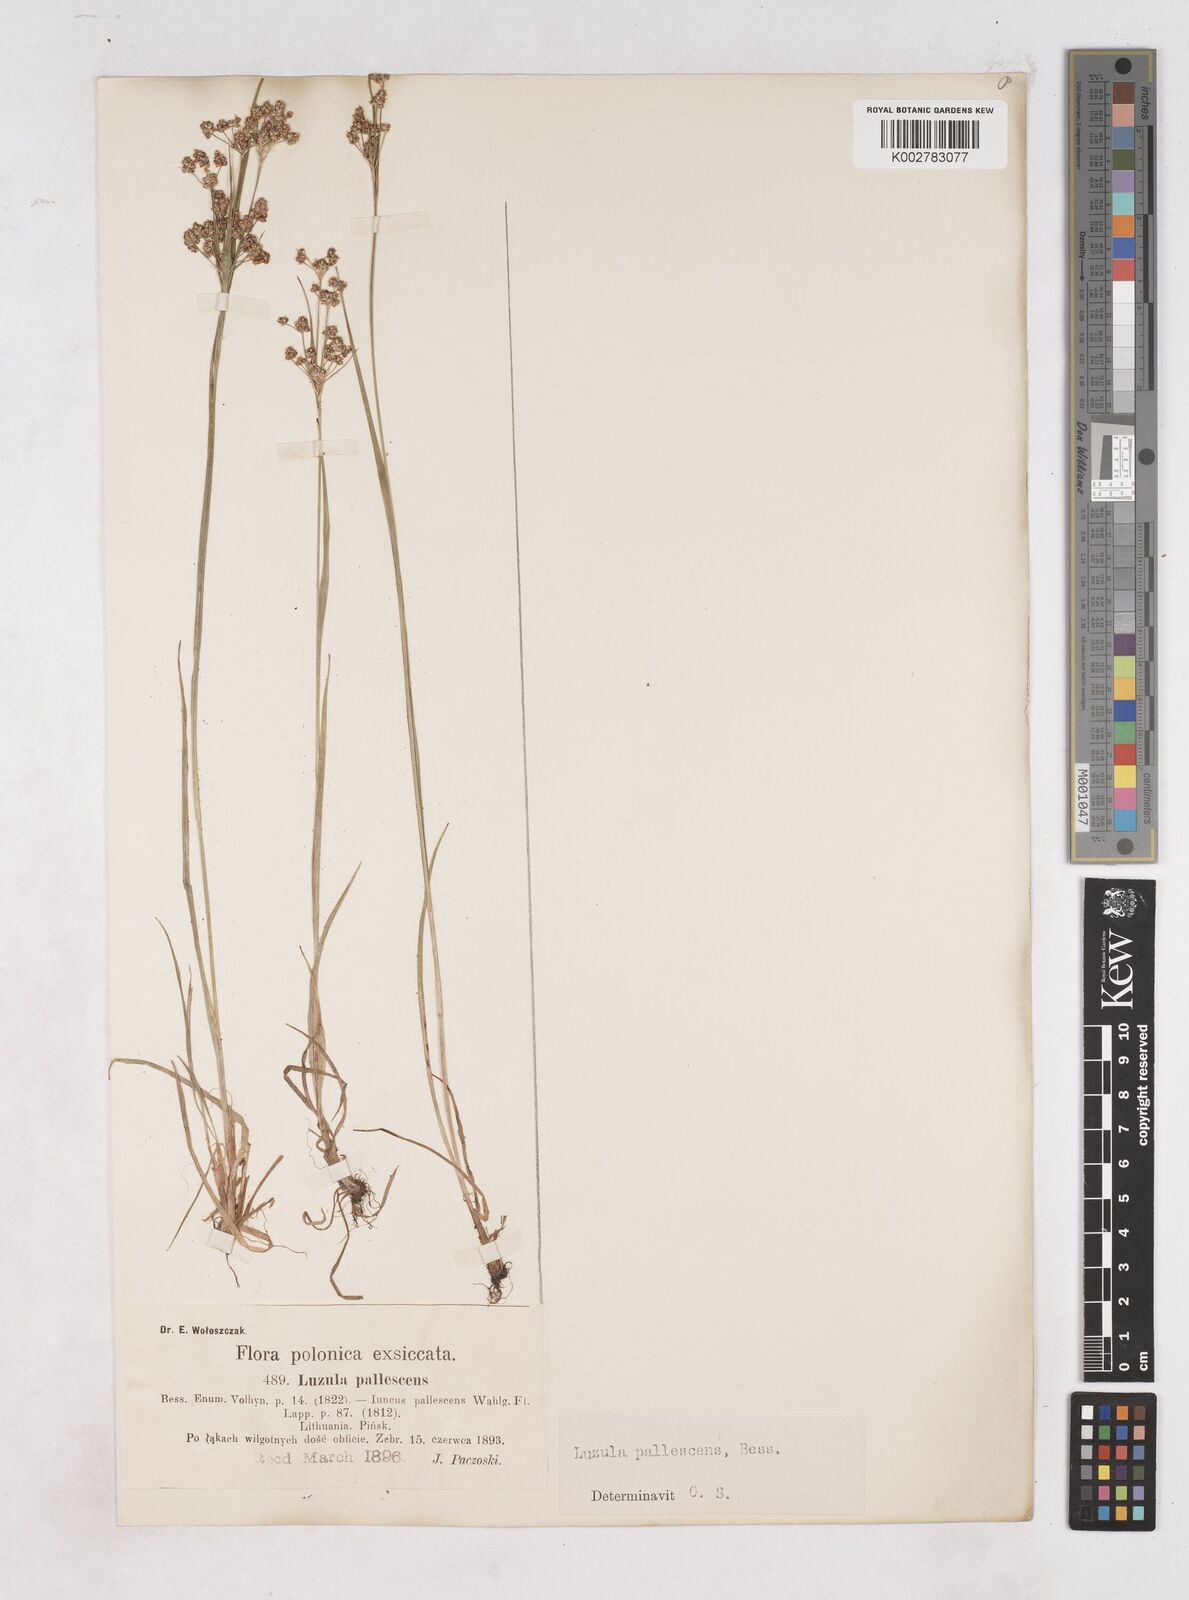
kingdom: Plantae
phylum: Tracheophyta
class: Liliopsida
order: Poales
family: Juncaceae
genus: Luzula
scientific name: Luzula pallescens
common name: Fen wood-rush
